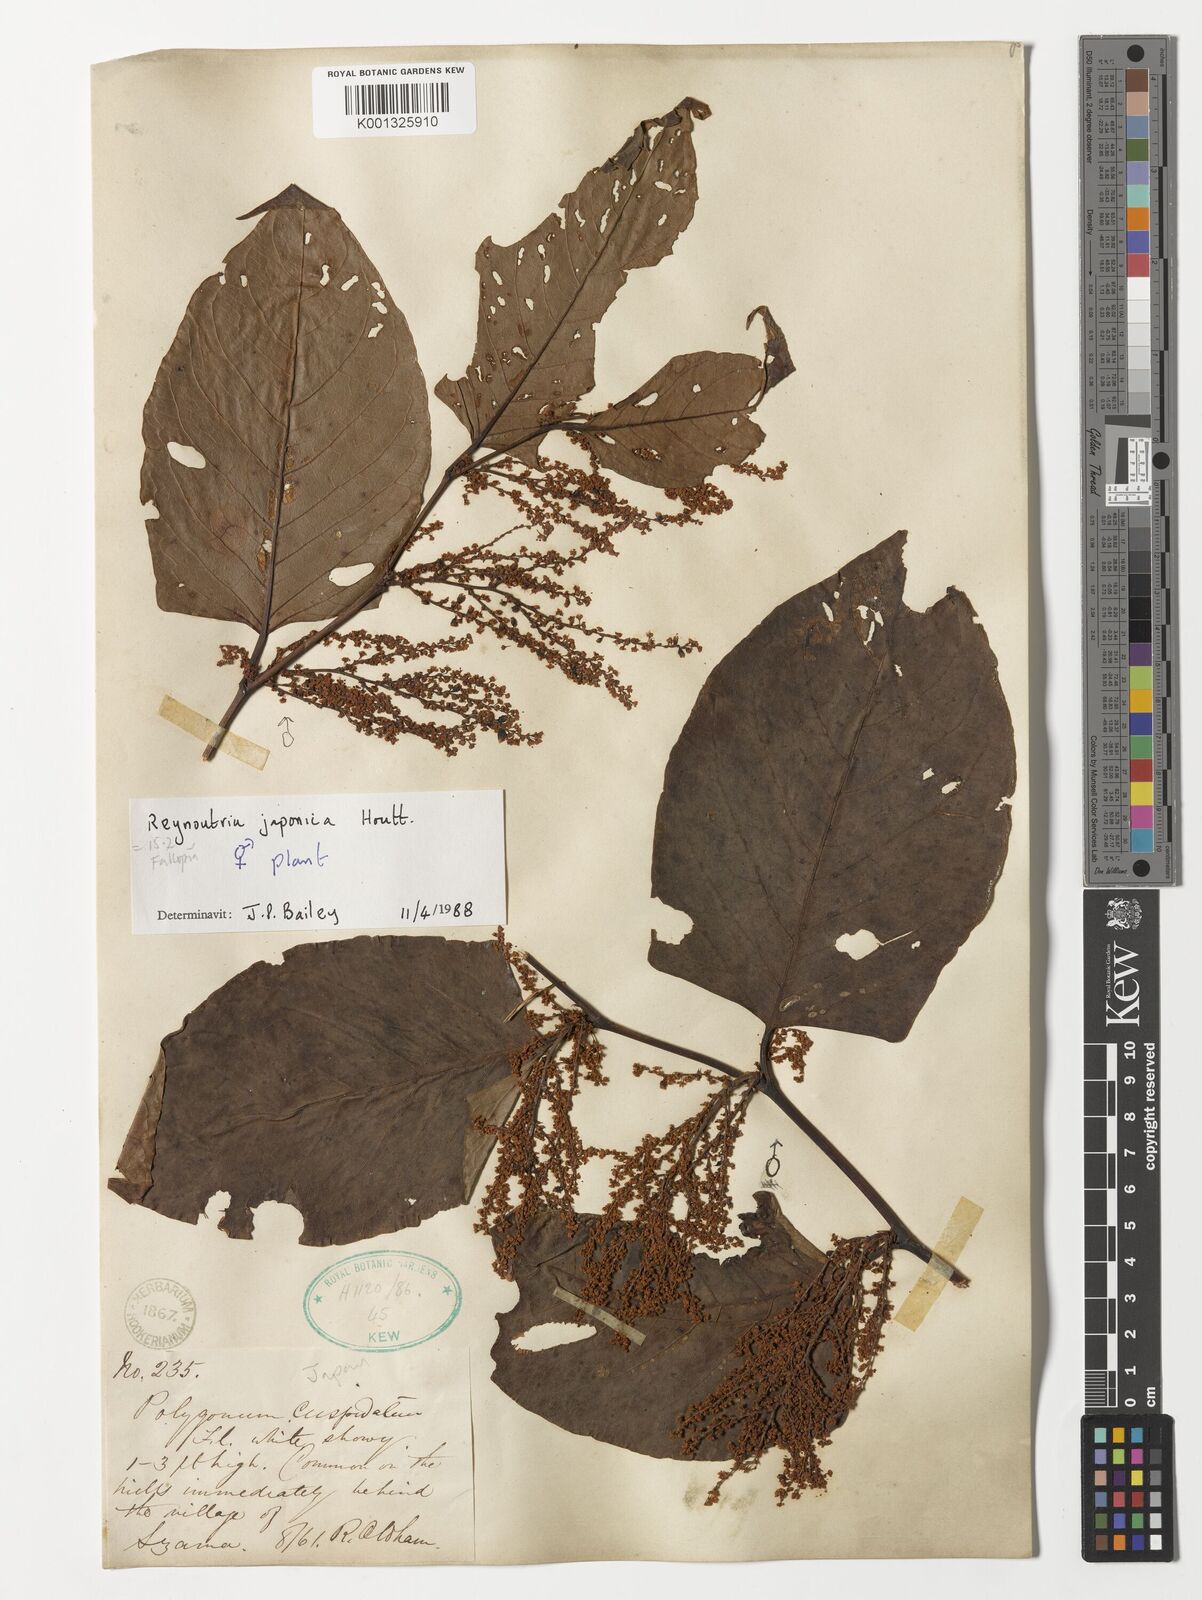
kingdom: Plantae
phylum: Tracheophyta
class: Magnoliopsida
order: Caryophyllales
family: Polygonaceae
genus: Reynoutria
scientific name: Reynoutria japonica
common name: Japanese knotweed
